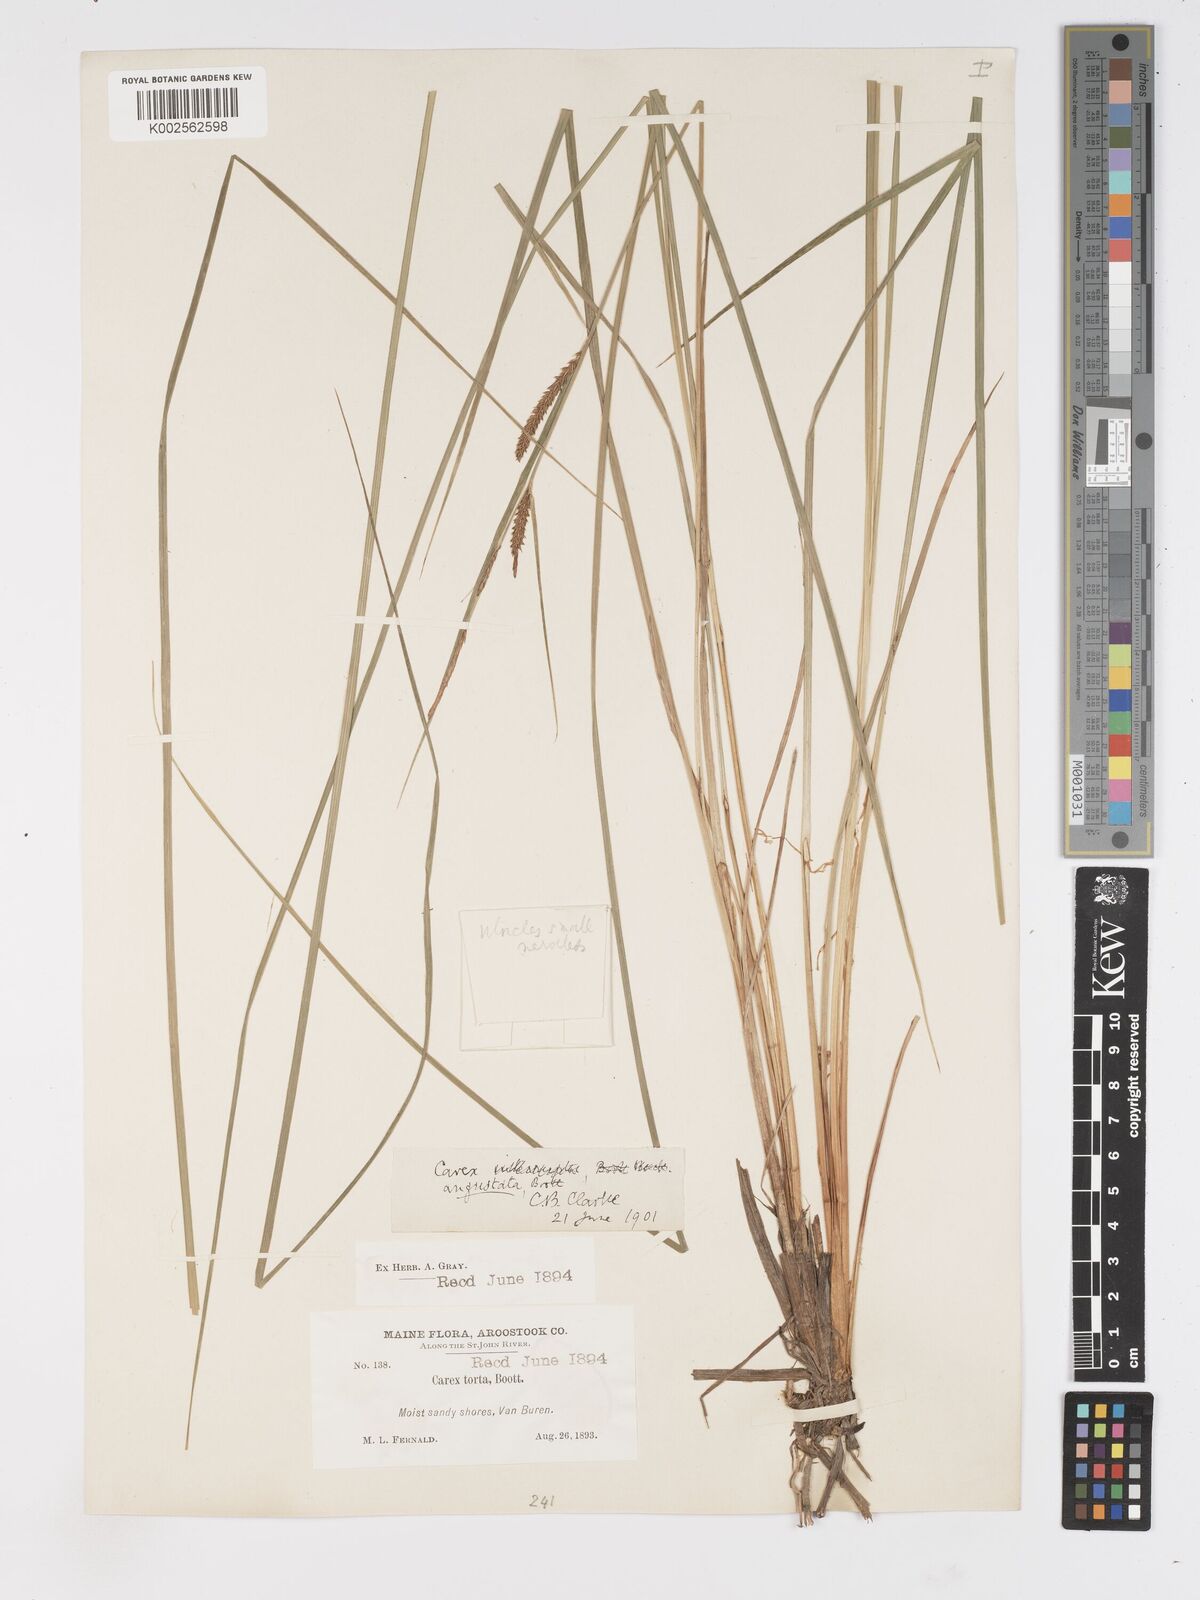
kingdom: Plantae
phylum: Tracheophyta
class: Liliopsida
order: Poales
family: Cyperaceae
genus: Carex
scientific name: Carex stricta
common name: Hummock sedge
